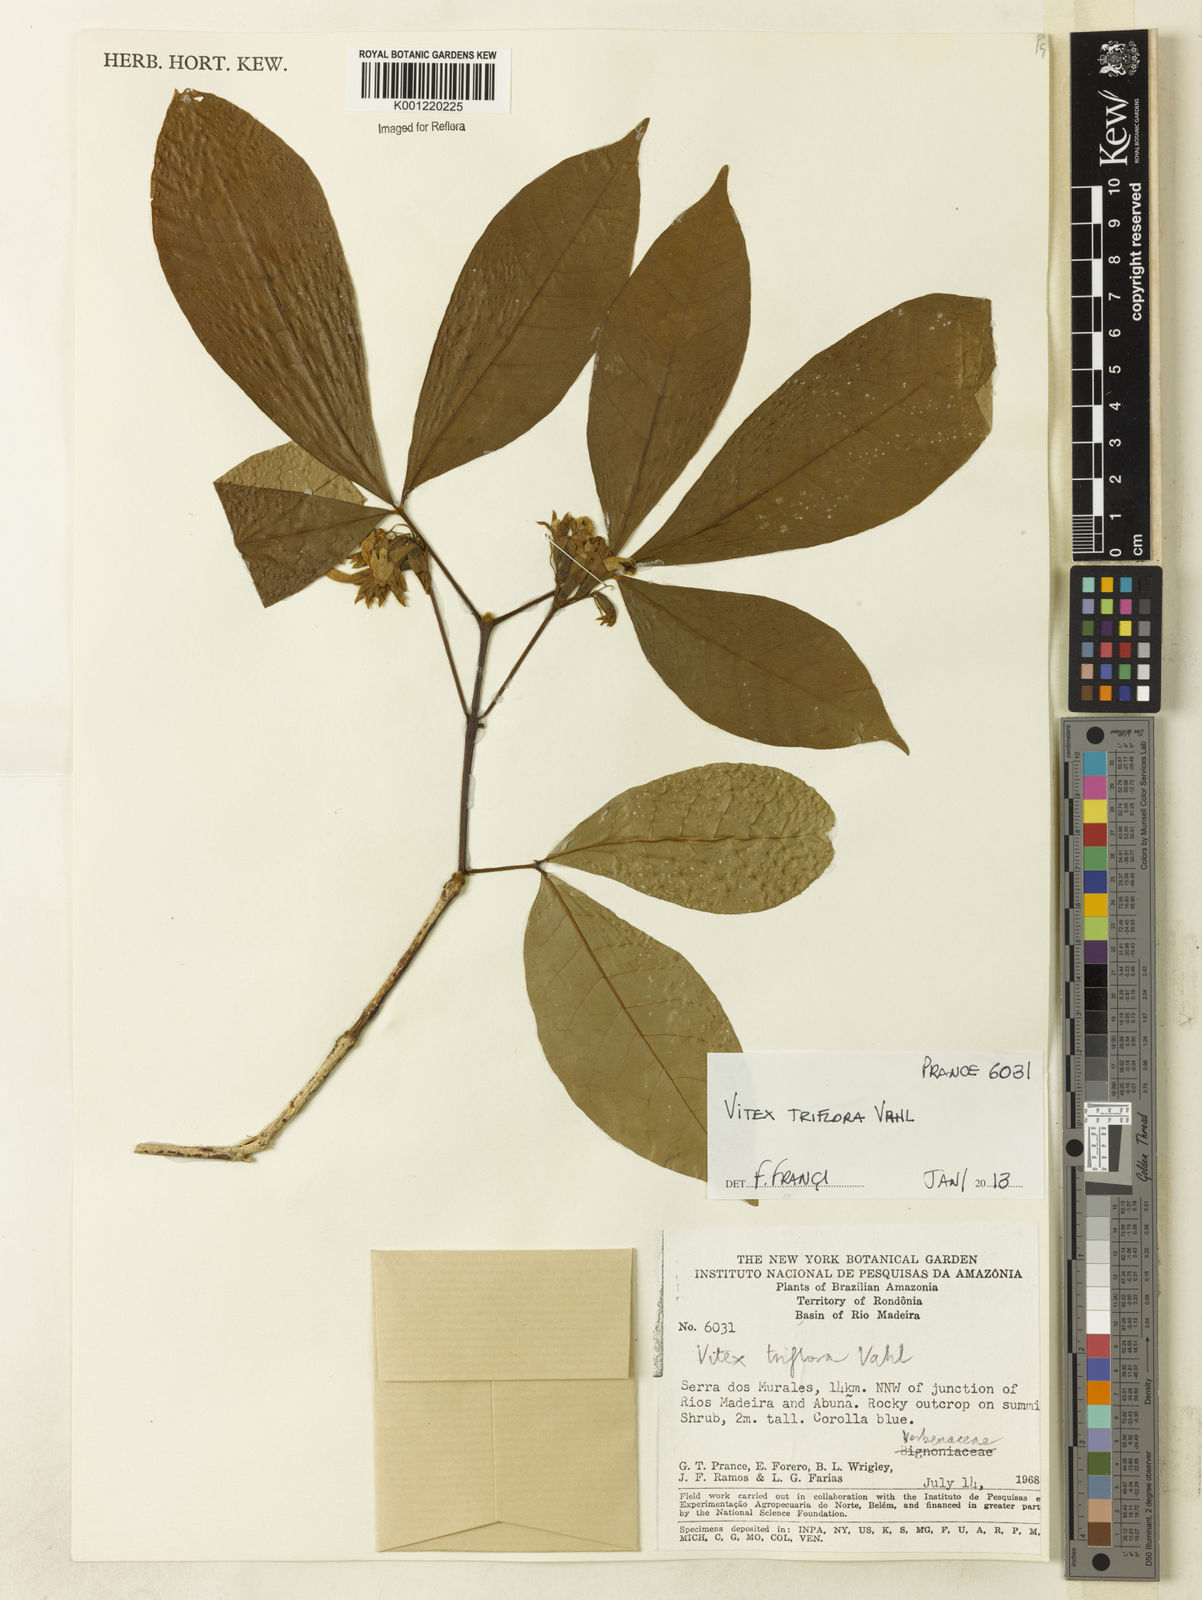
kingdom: Plantae
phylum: Tracheophyta
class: Magnoliopsida
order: Lamiales
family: Lamiaceae
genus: Vitex
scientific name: Vitex triflora
